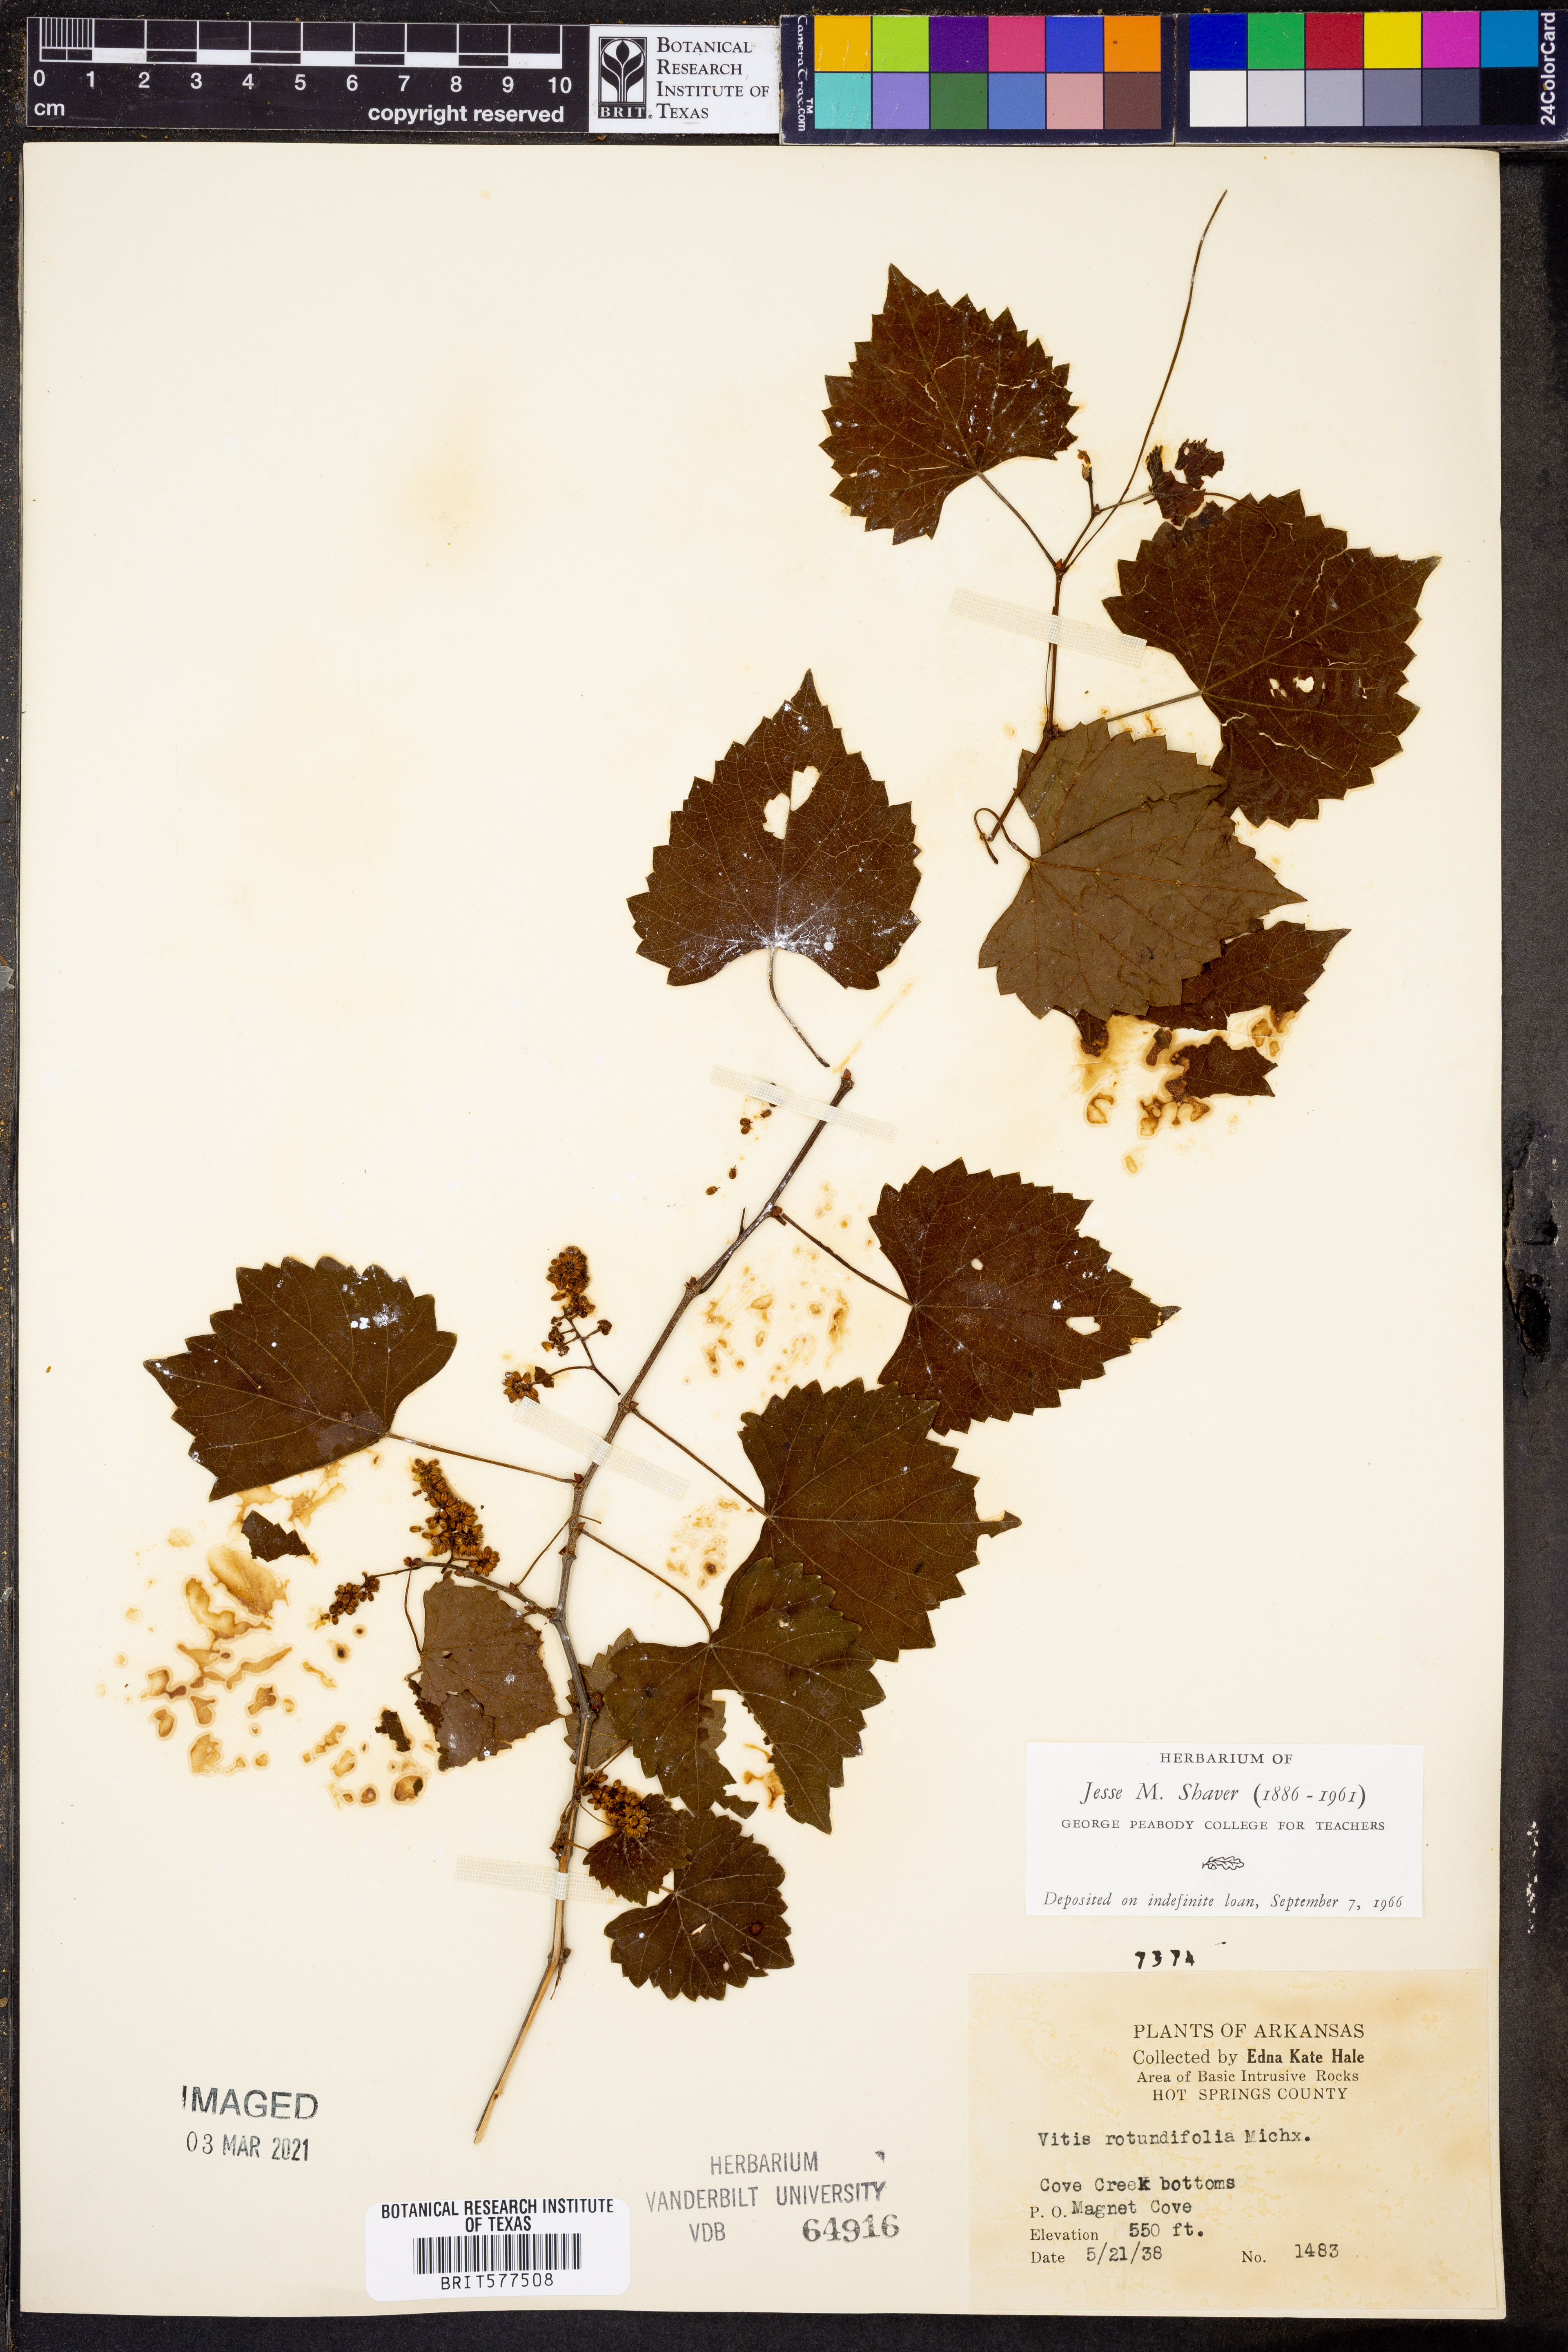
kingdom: Plantae
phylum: Tracheophyta
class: Magnoliopsida
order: Vitales
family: Vitaceae
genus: Vitis
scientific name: Vitis rotundifolia
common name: Muscadine grape
